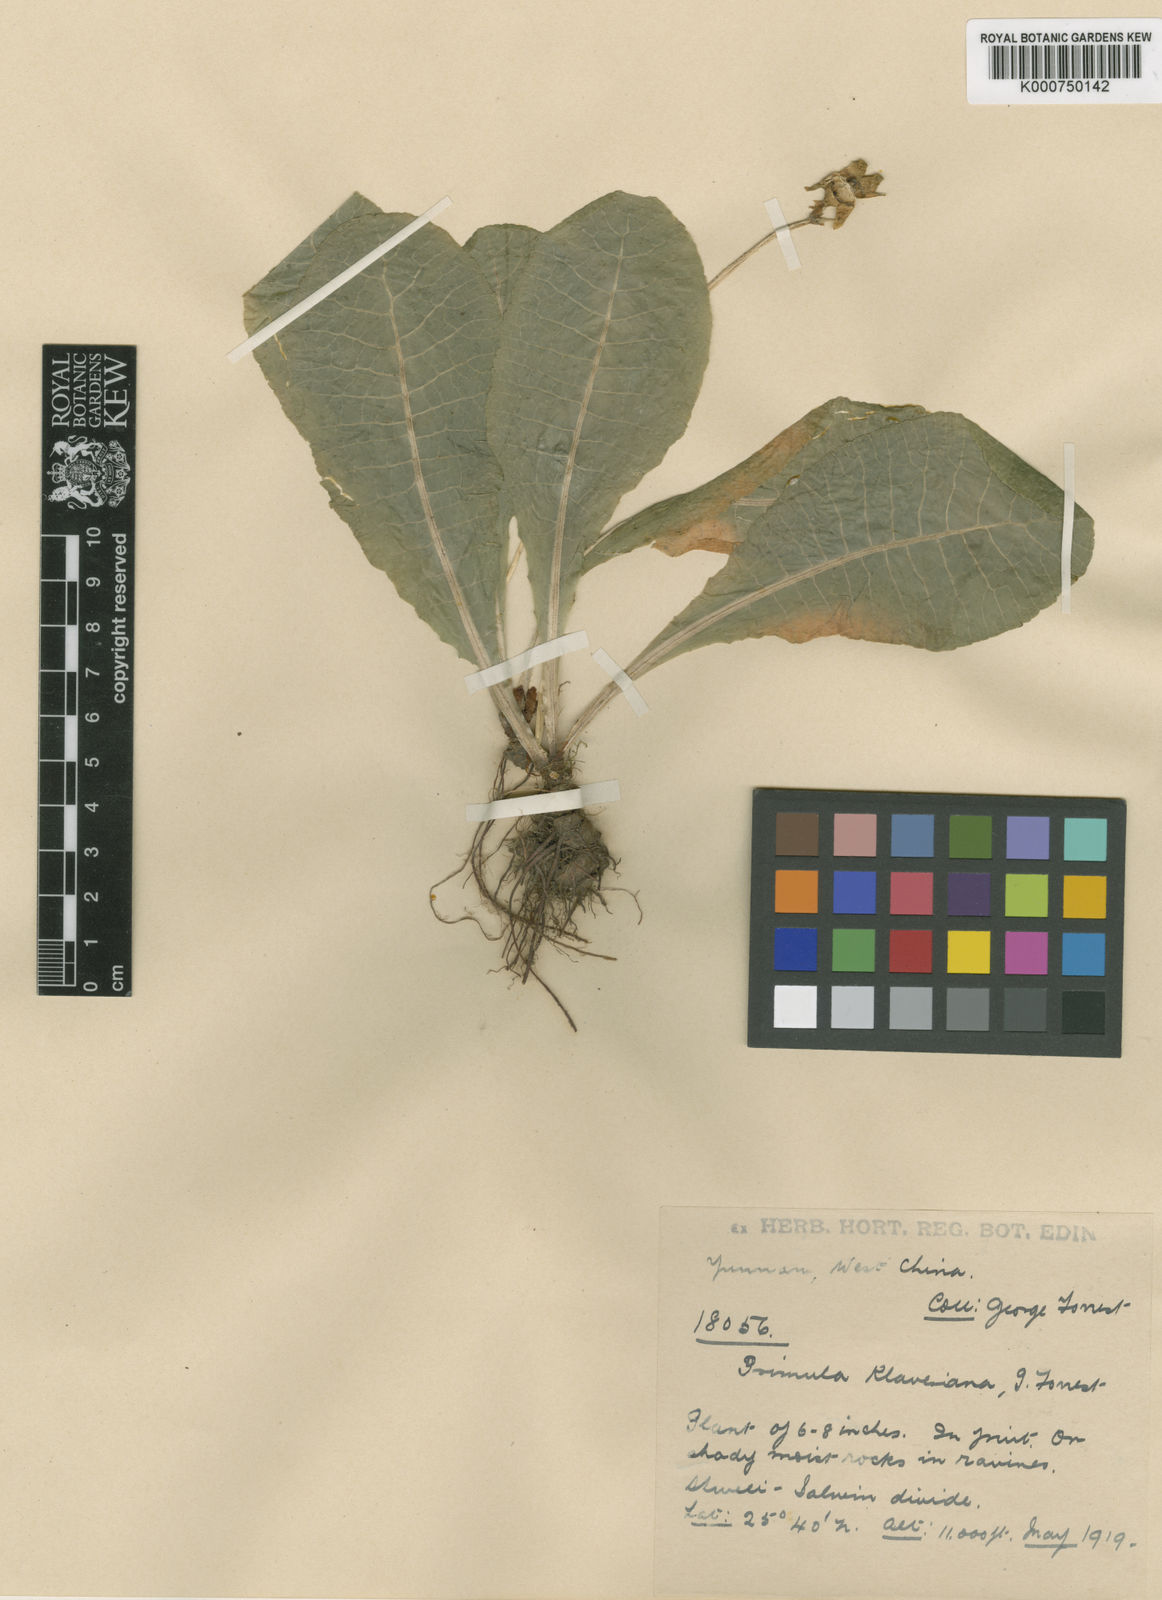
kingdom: Plantae
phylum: Tracheophyta
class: Magnoliopsida
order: Ericales
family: Primulaceae
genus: Primula
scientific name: Primula klaveriana
